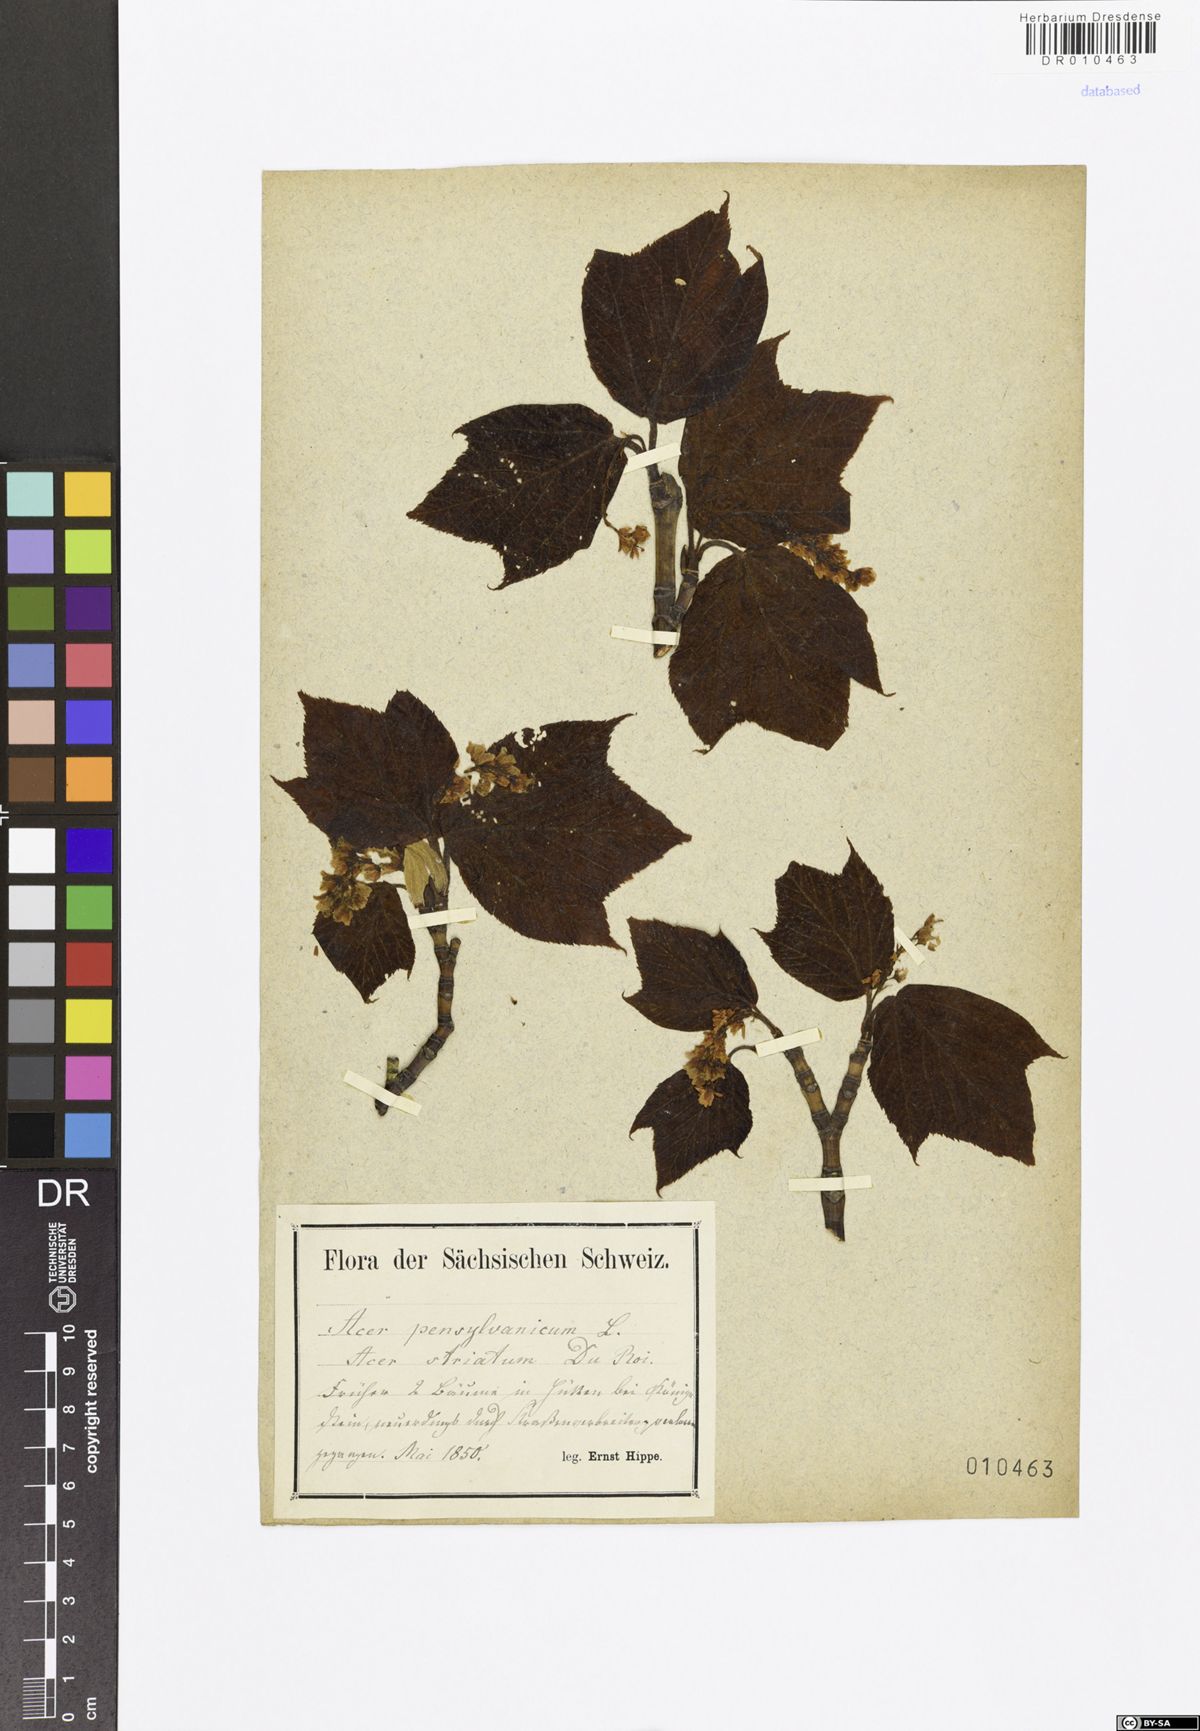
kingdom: Plantae
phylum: Tracheophyta
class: Magnoliopsida
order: Sapindales
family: Sapindaceae
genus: Acer
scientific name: Acer pensylvanicum
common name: Moosewood
